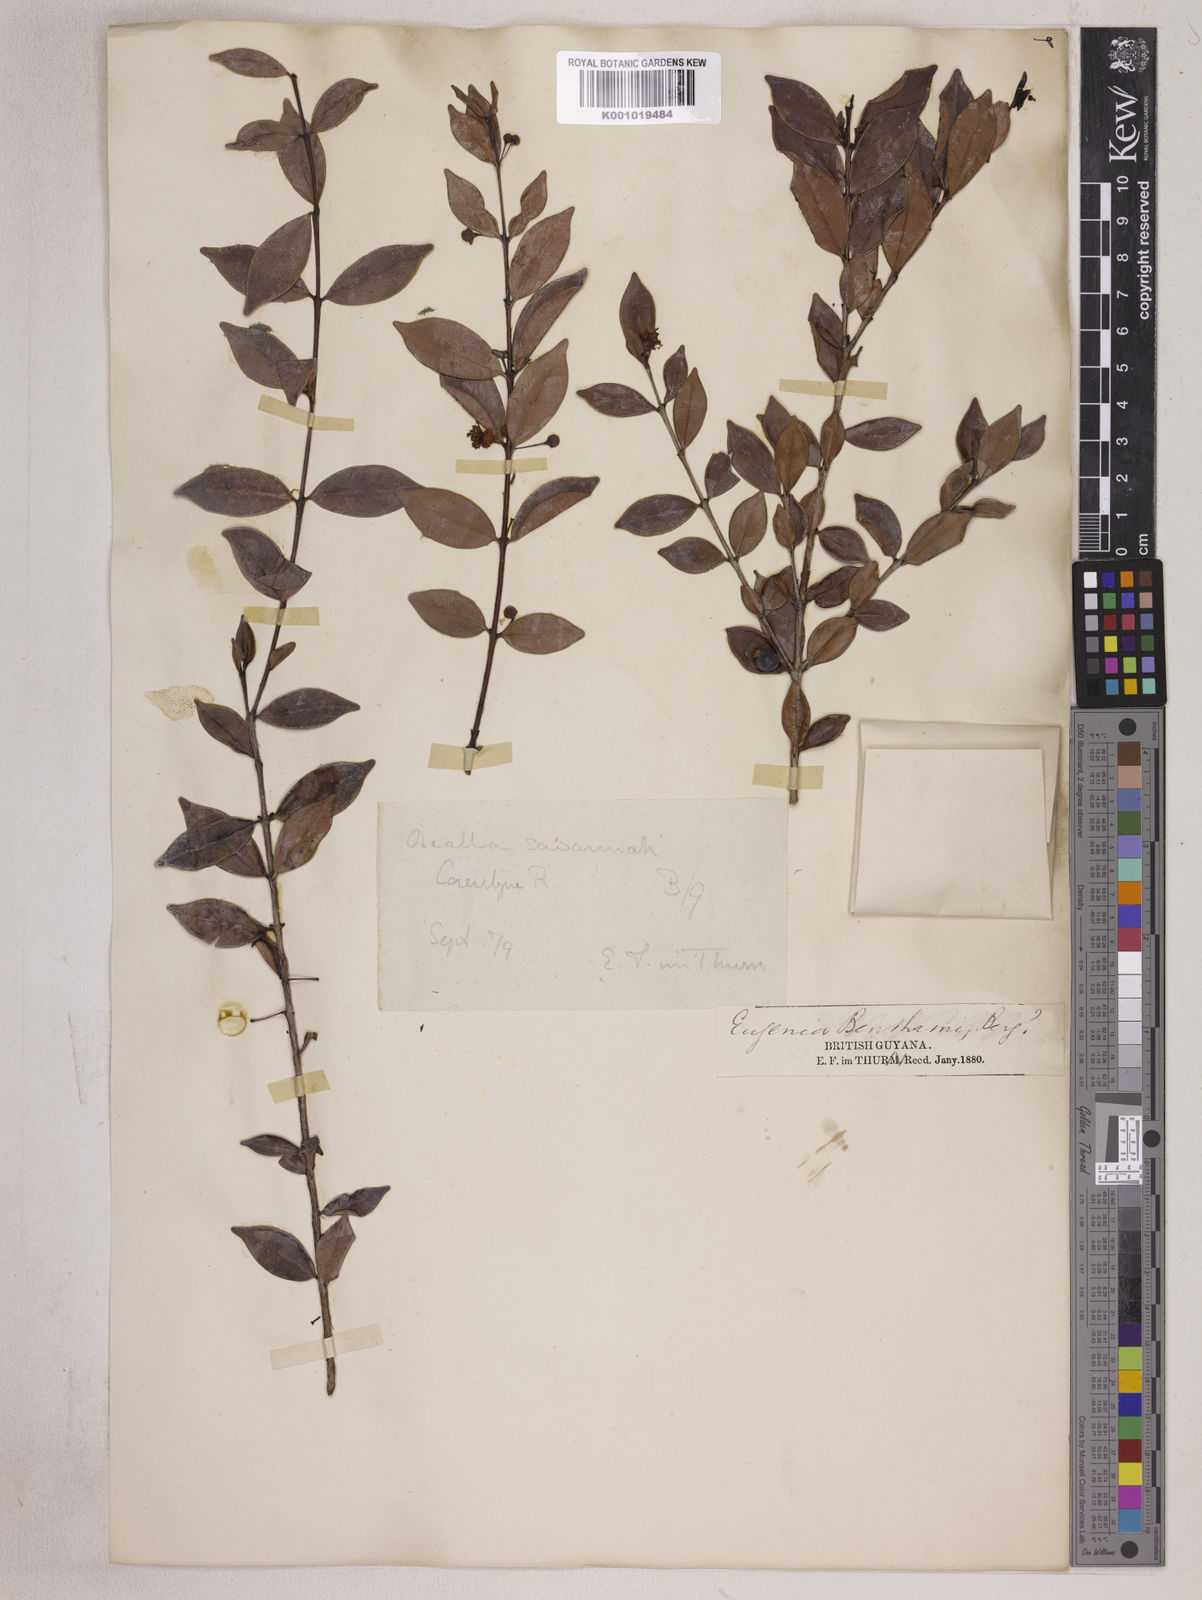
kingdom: Plantae
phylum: Tracheophyta
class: Magnoliopsida
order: Myrtales
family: Myrtaceae
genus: Eugenia
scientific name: Eugenia punicifolia
